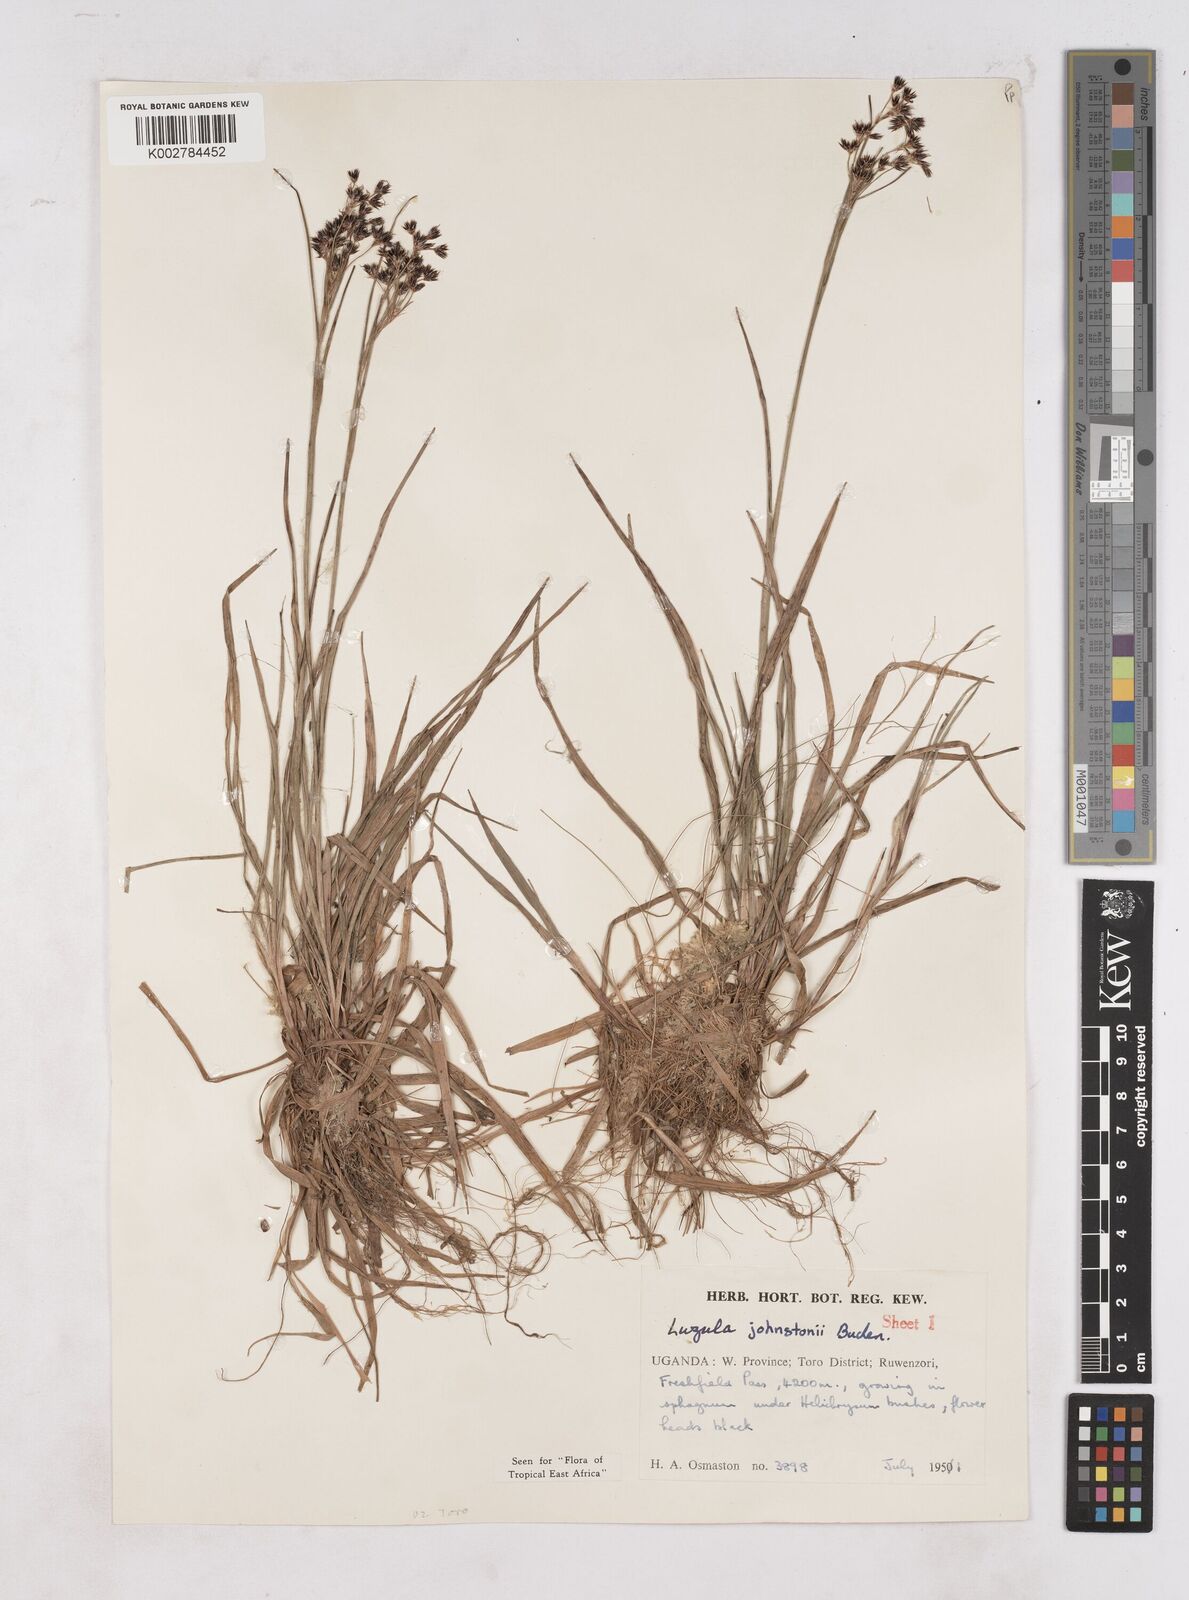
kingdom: Plantae
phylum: Tracheophyta
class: Liliopsida
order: Poales
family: Juncaceae
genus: Luzula
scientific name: Luzula johnstonii
